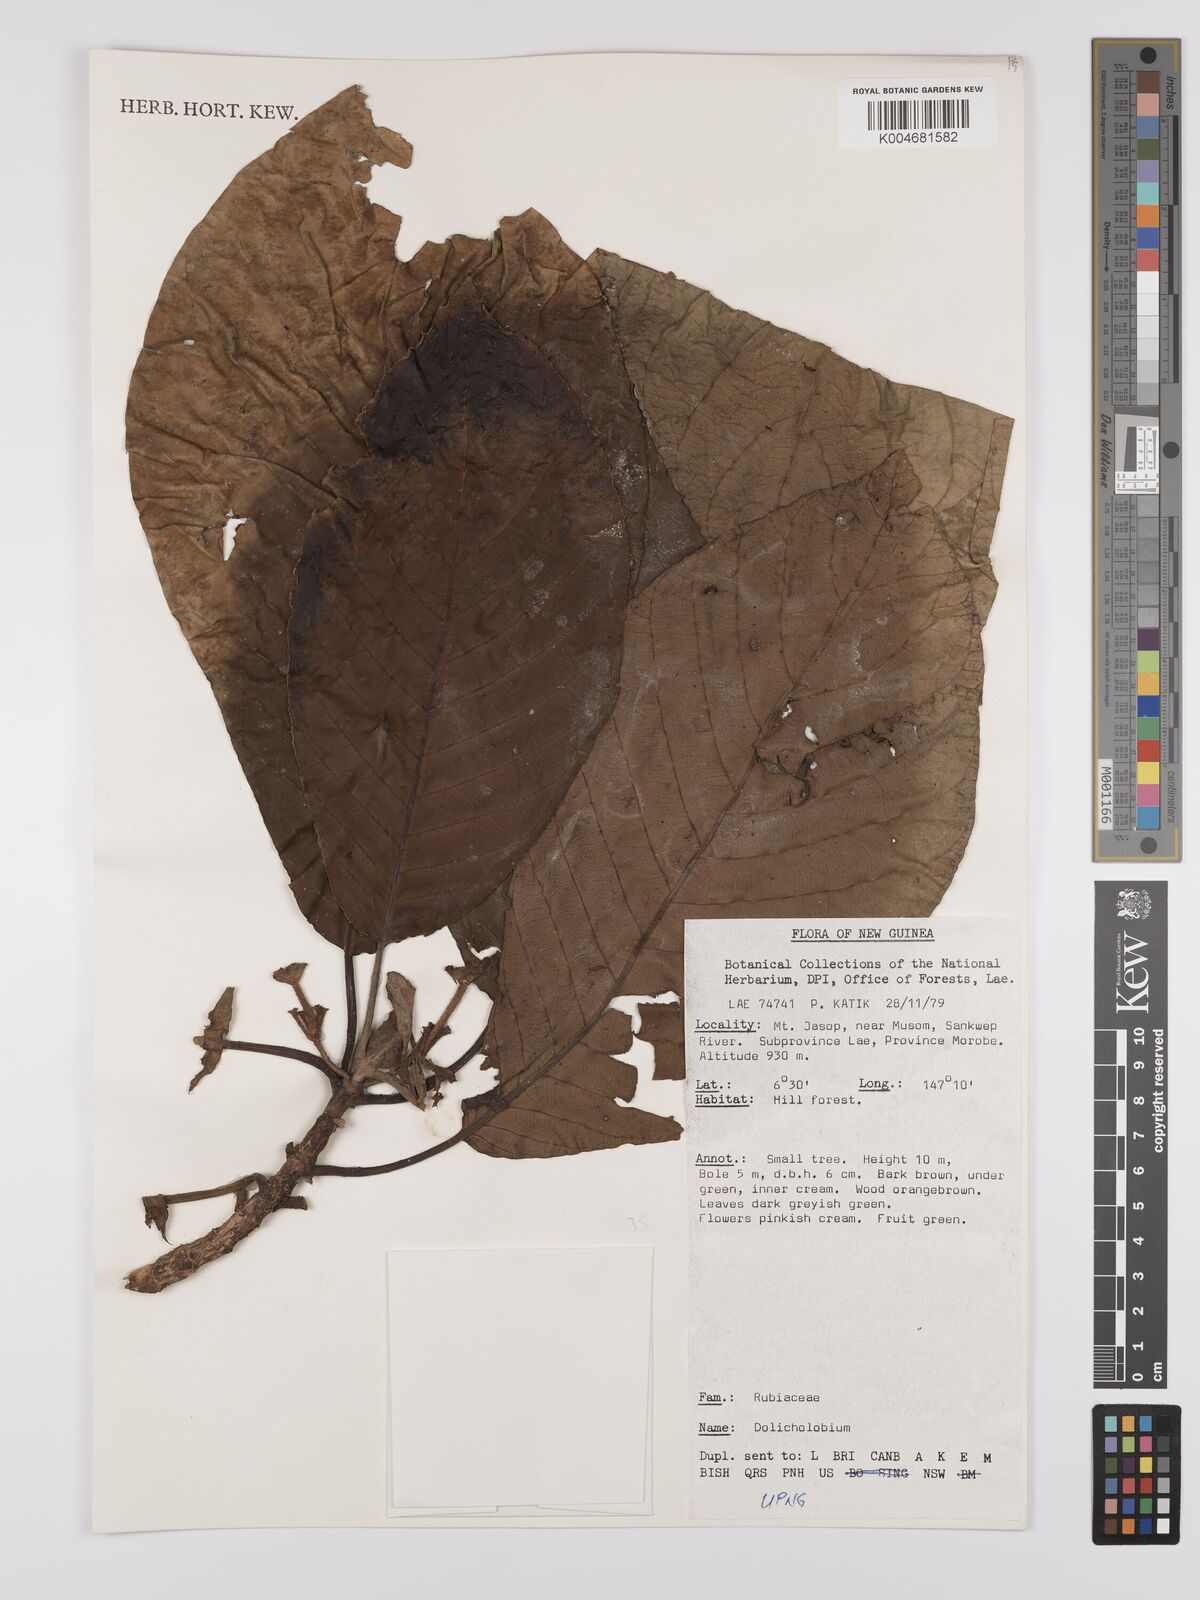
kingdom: Plantae
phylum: Tracheophyta
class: Magnoliopsida
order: Gentianales
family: Rubiaceae
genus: Dolicholobium
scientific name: Dolicholobium
